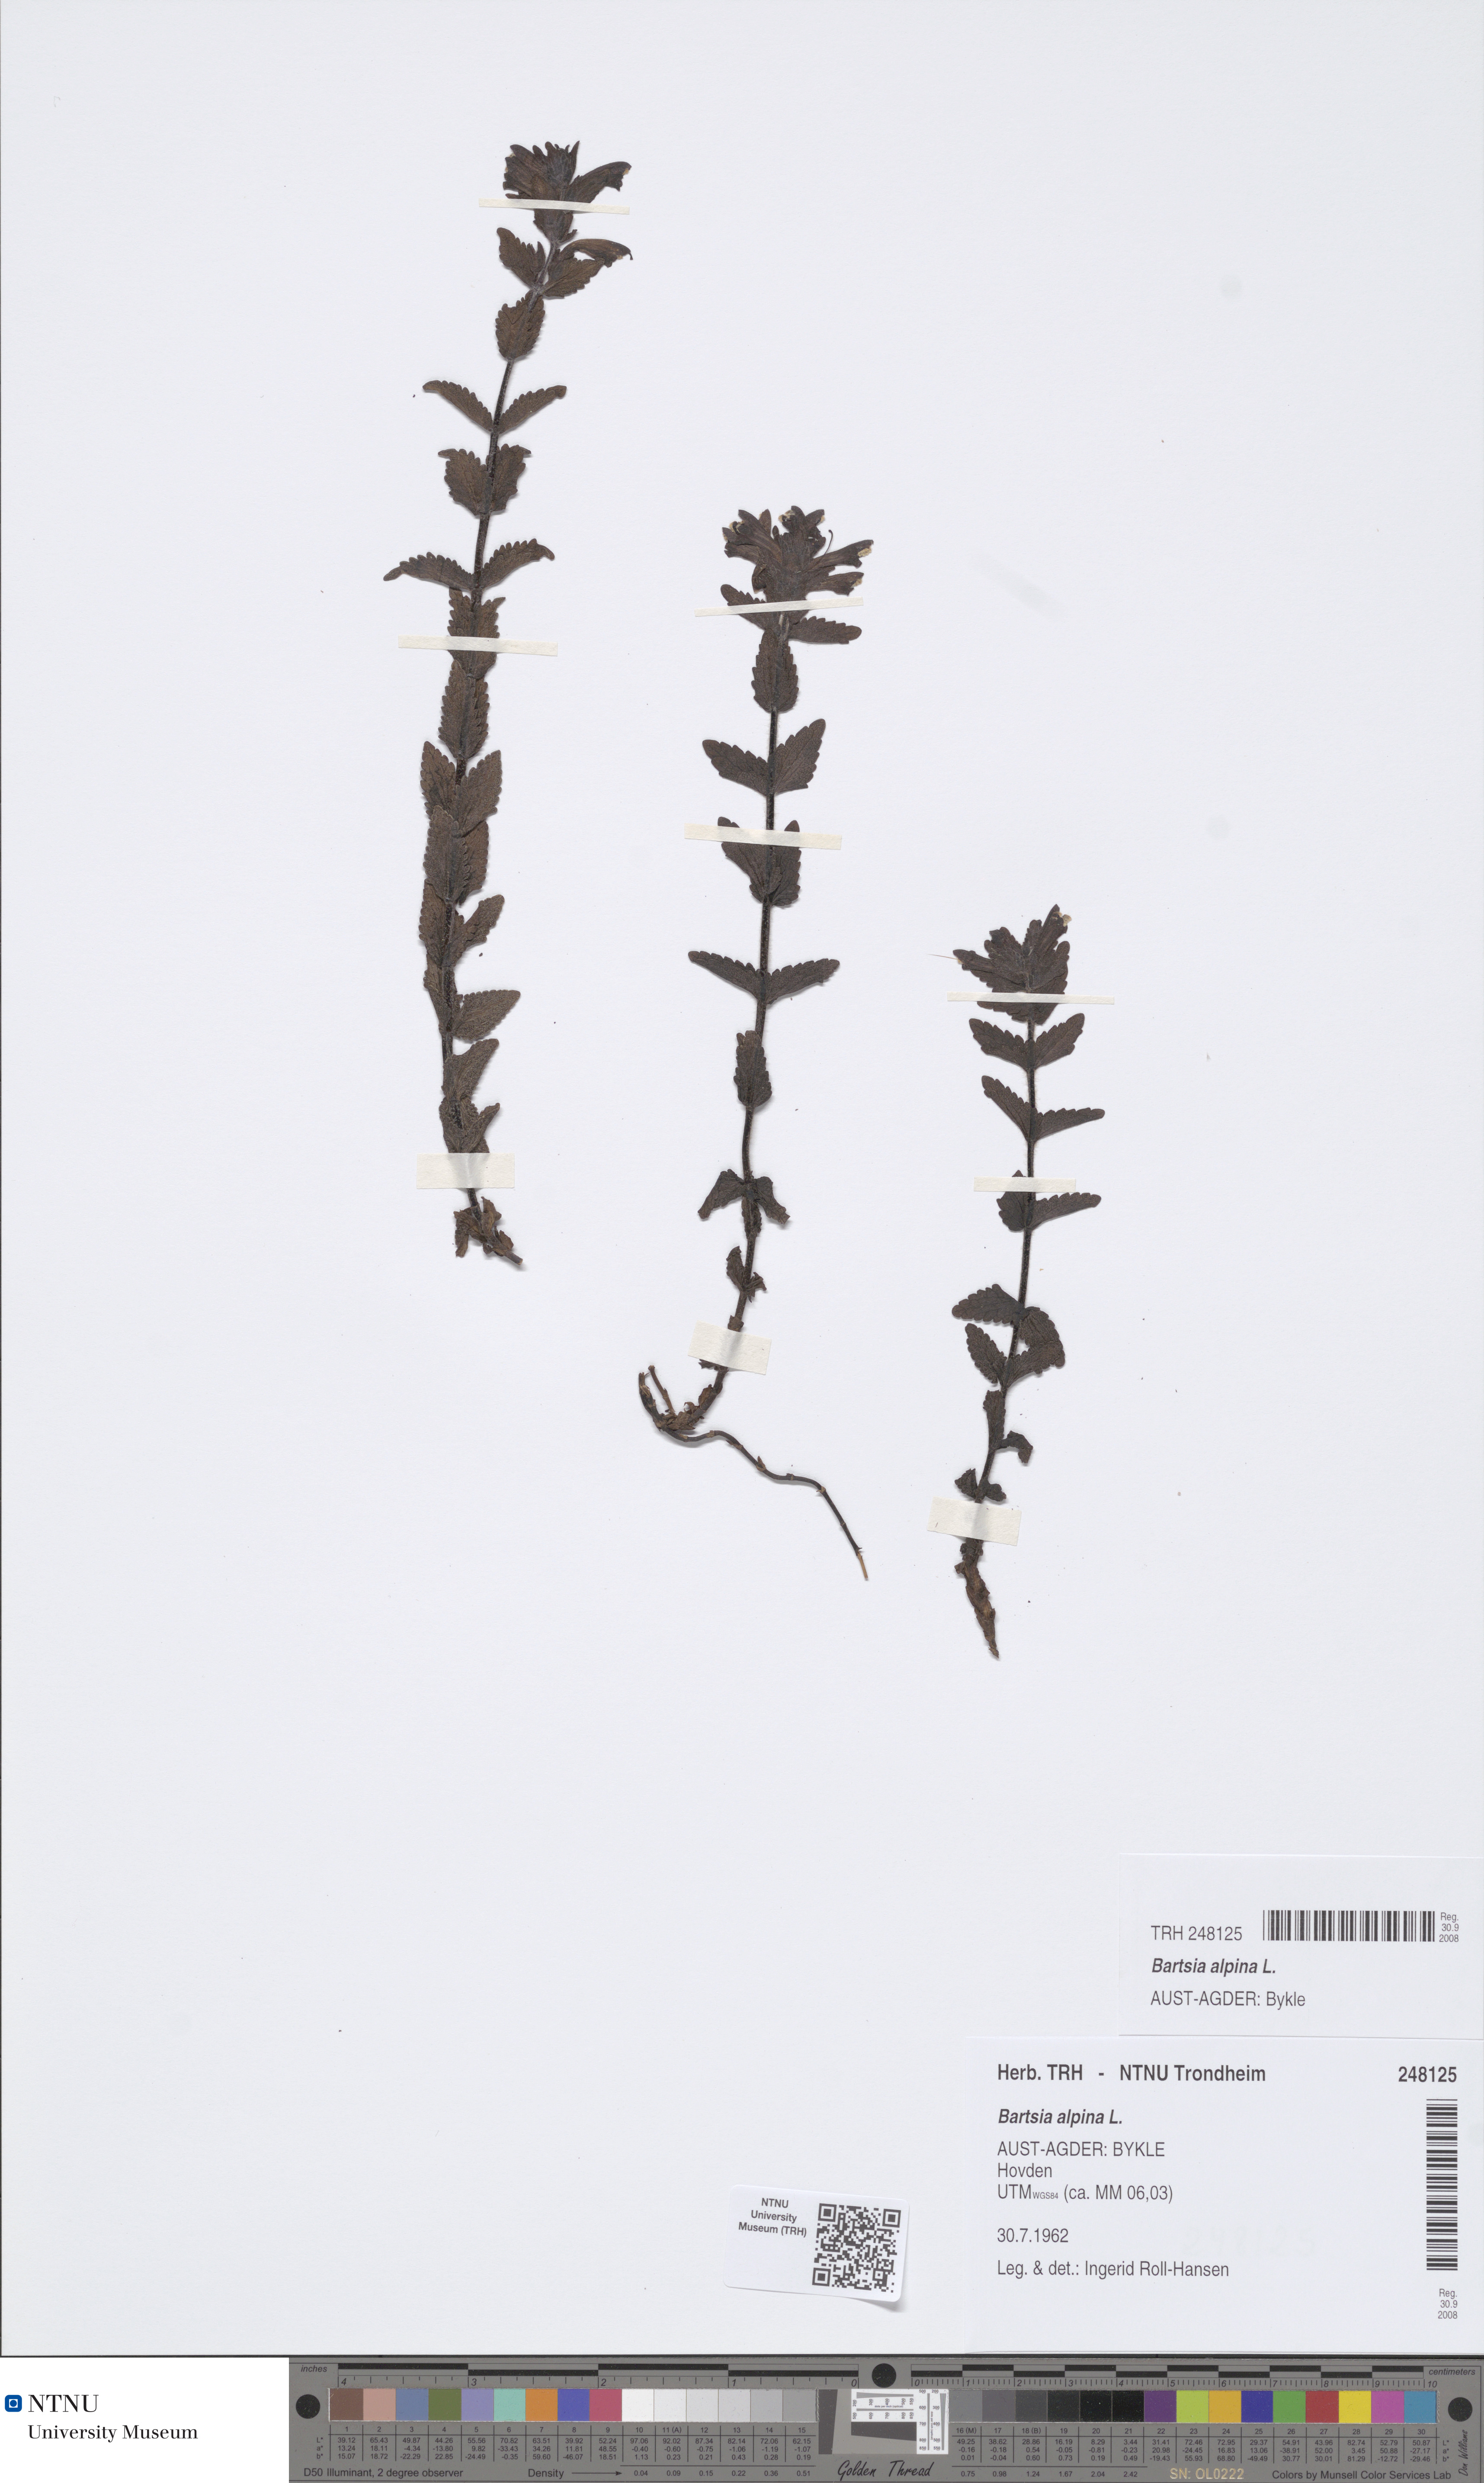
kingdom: Plantae
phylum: Tracheophyta
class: Magnoliopsida
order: Lamiales
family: Orobanchaceae
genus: Bartsia
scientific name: Bartsia alpina
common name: Alpine bartsia
